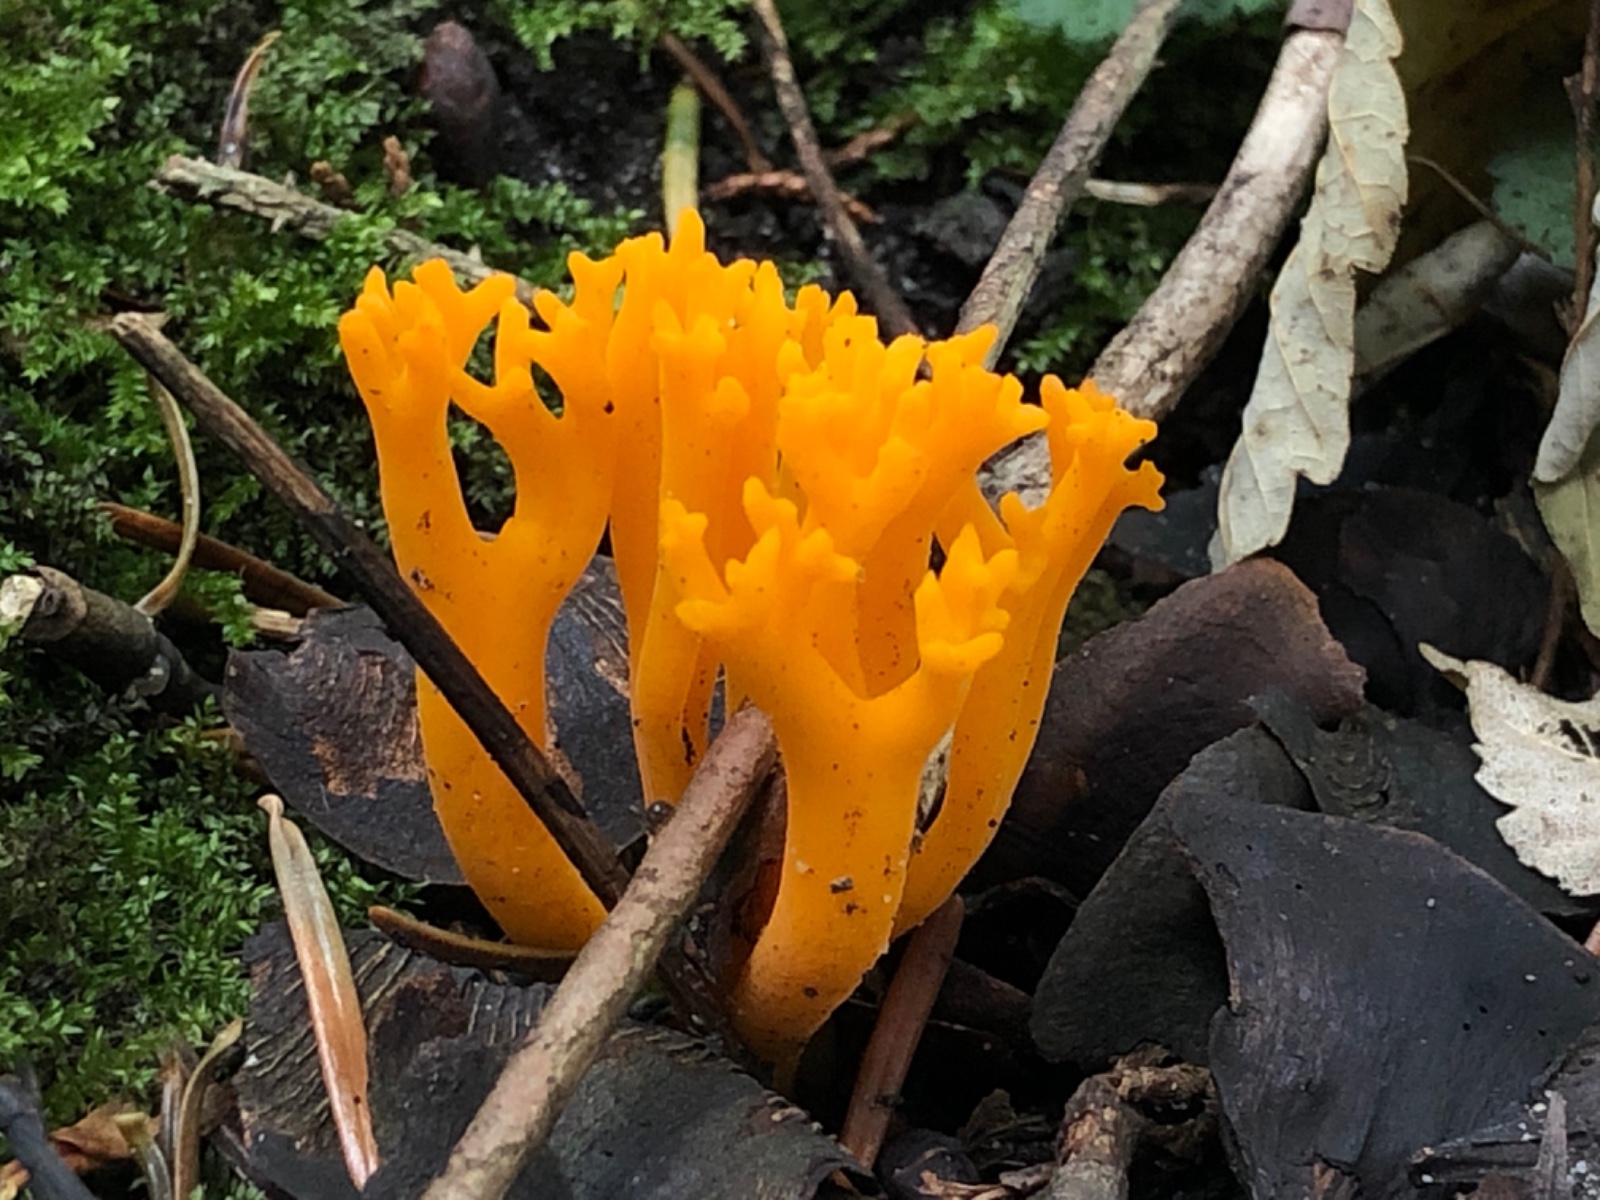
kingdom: Fungi
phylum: Basidiomycota
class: Dacrymycetes
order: Dacrymycetales
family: Dacrymycetaceae
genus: Calocera
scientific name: Calocera viscosa
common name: almindelig guldgaffel
